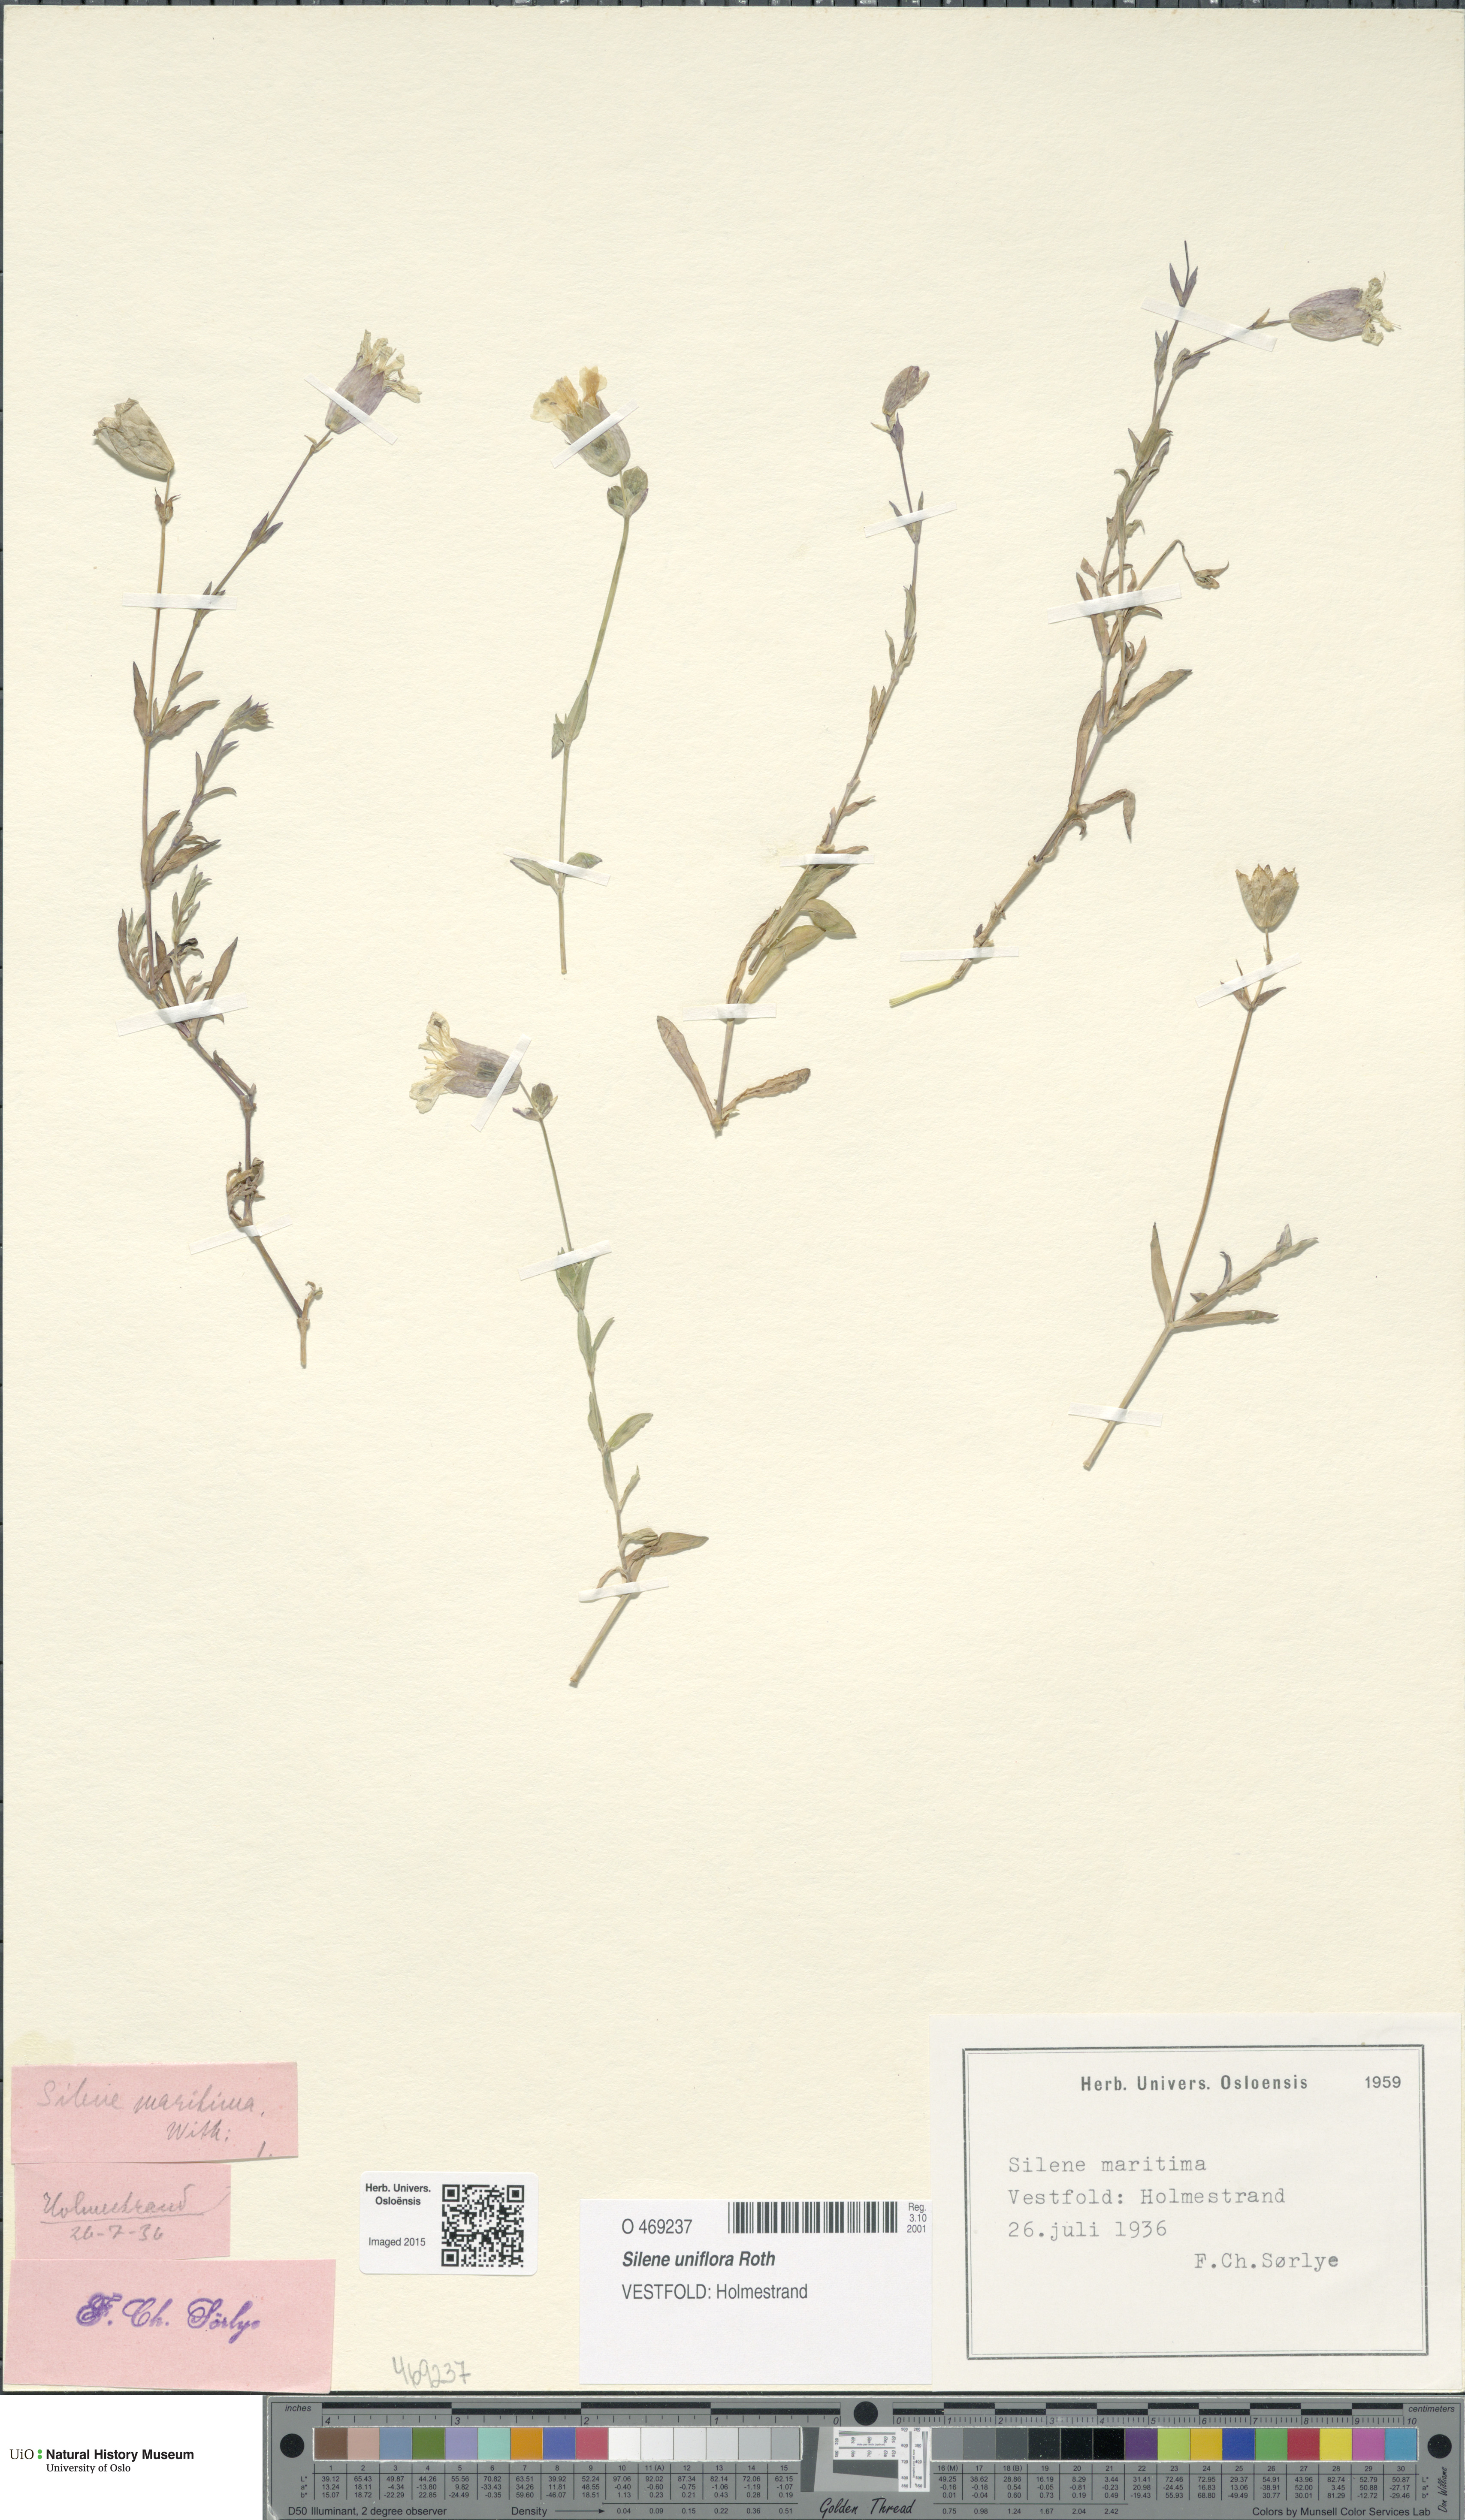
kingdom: Plantae
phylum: Tracheophyta
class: Magnoliopsida
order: Caryophyllales
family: Caryophyllaceae
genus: Silene
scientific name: Silene uniflora
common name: Sea campion
